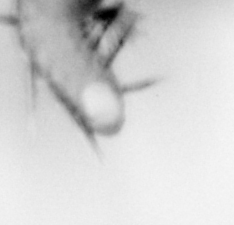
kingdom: Animalia
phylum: Annelida
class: Polychaeta
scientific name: Polychaeta
